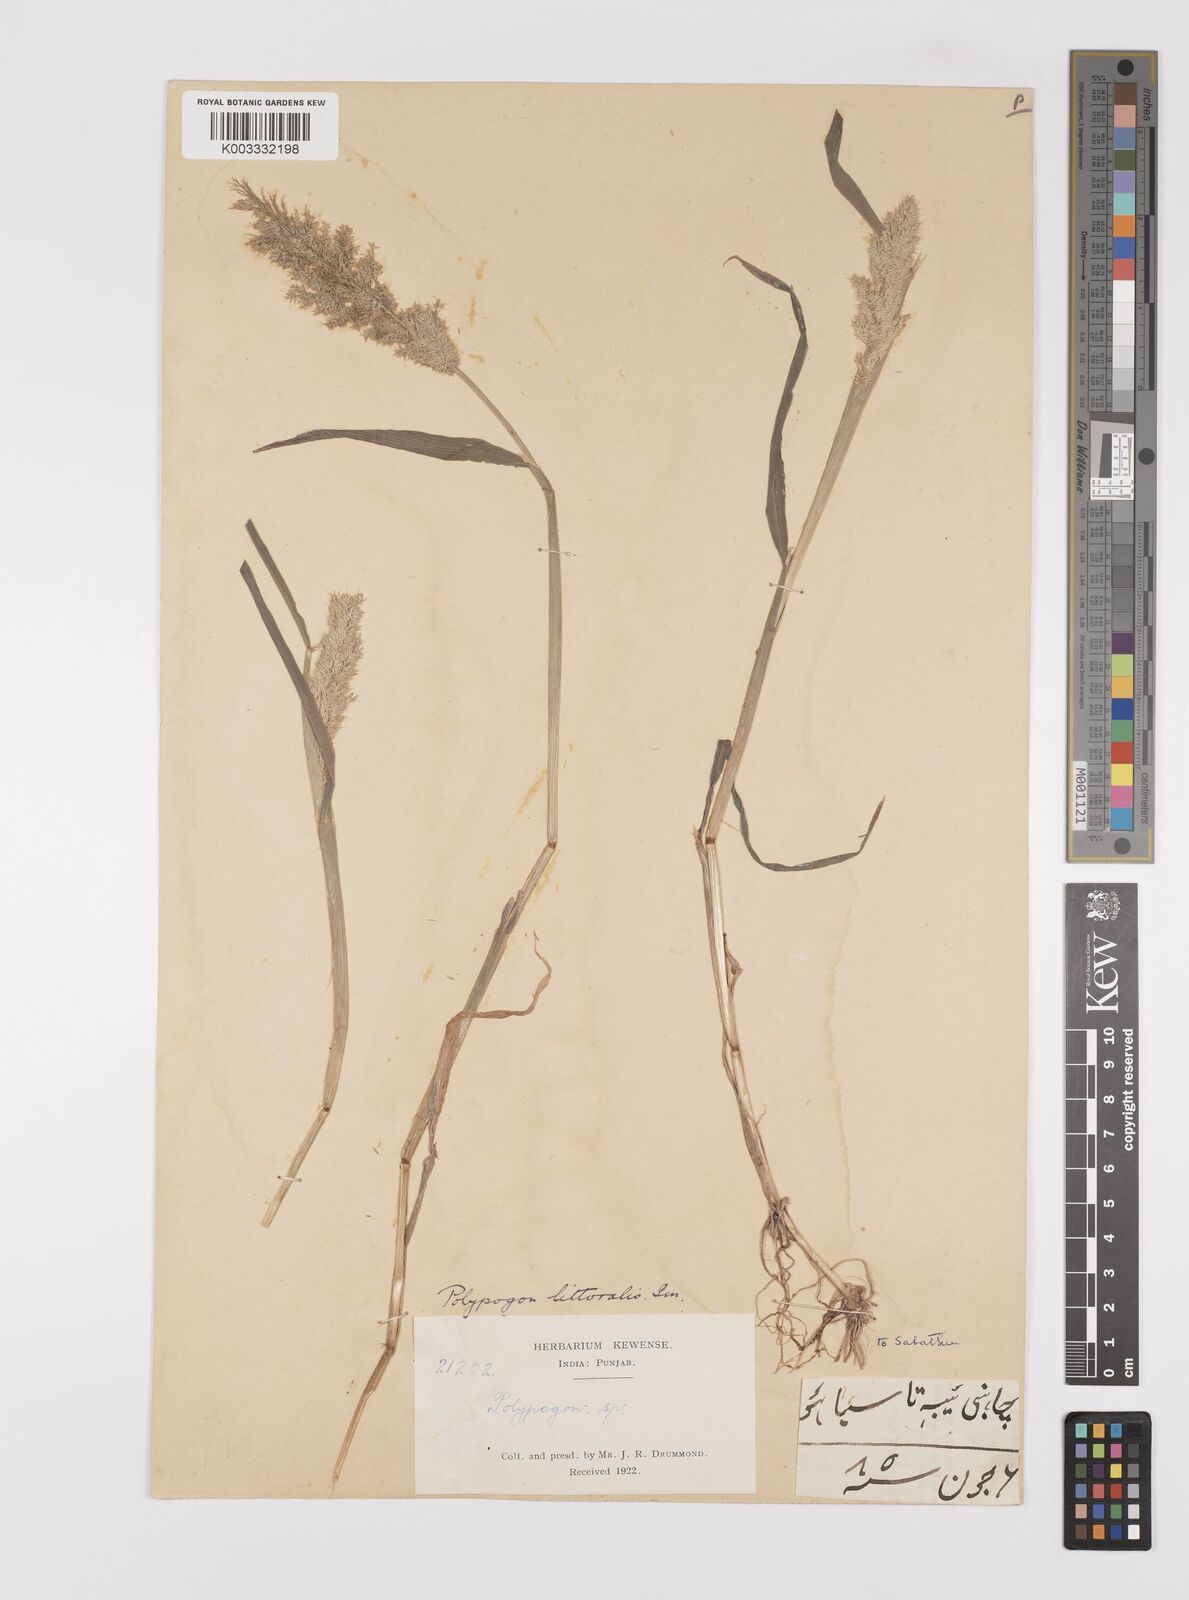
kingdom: Plantae
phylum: Tracheophyta
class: Liliopsida
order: Poales
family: Poaceae
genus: Polypogon
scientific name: Polypogon fugax
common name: Asia minor bluegrass
